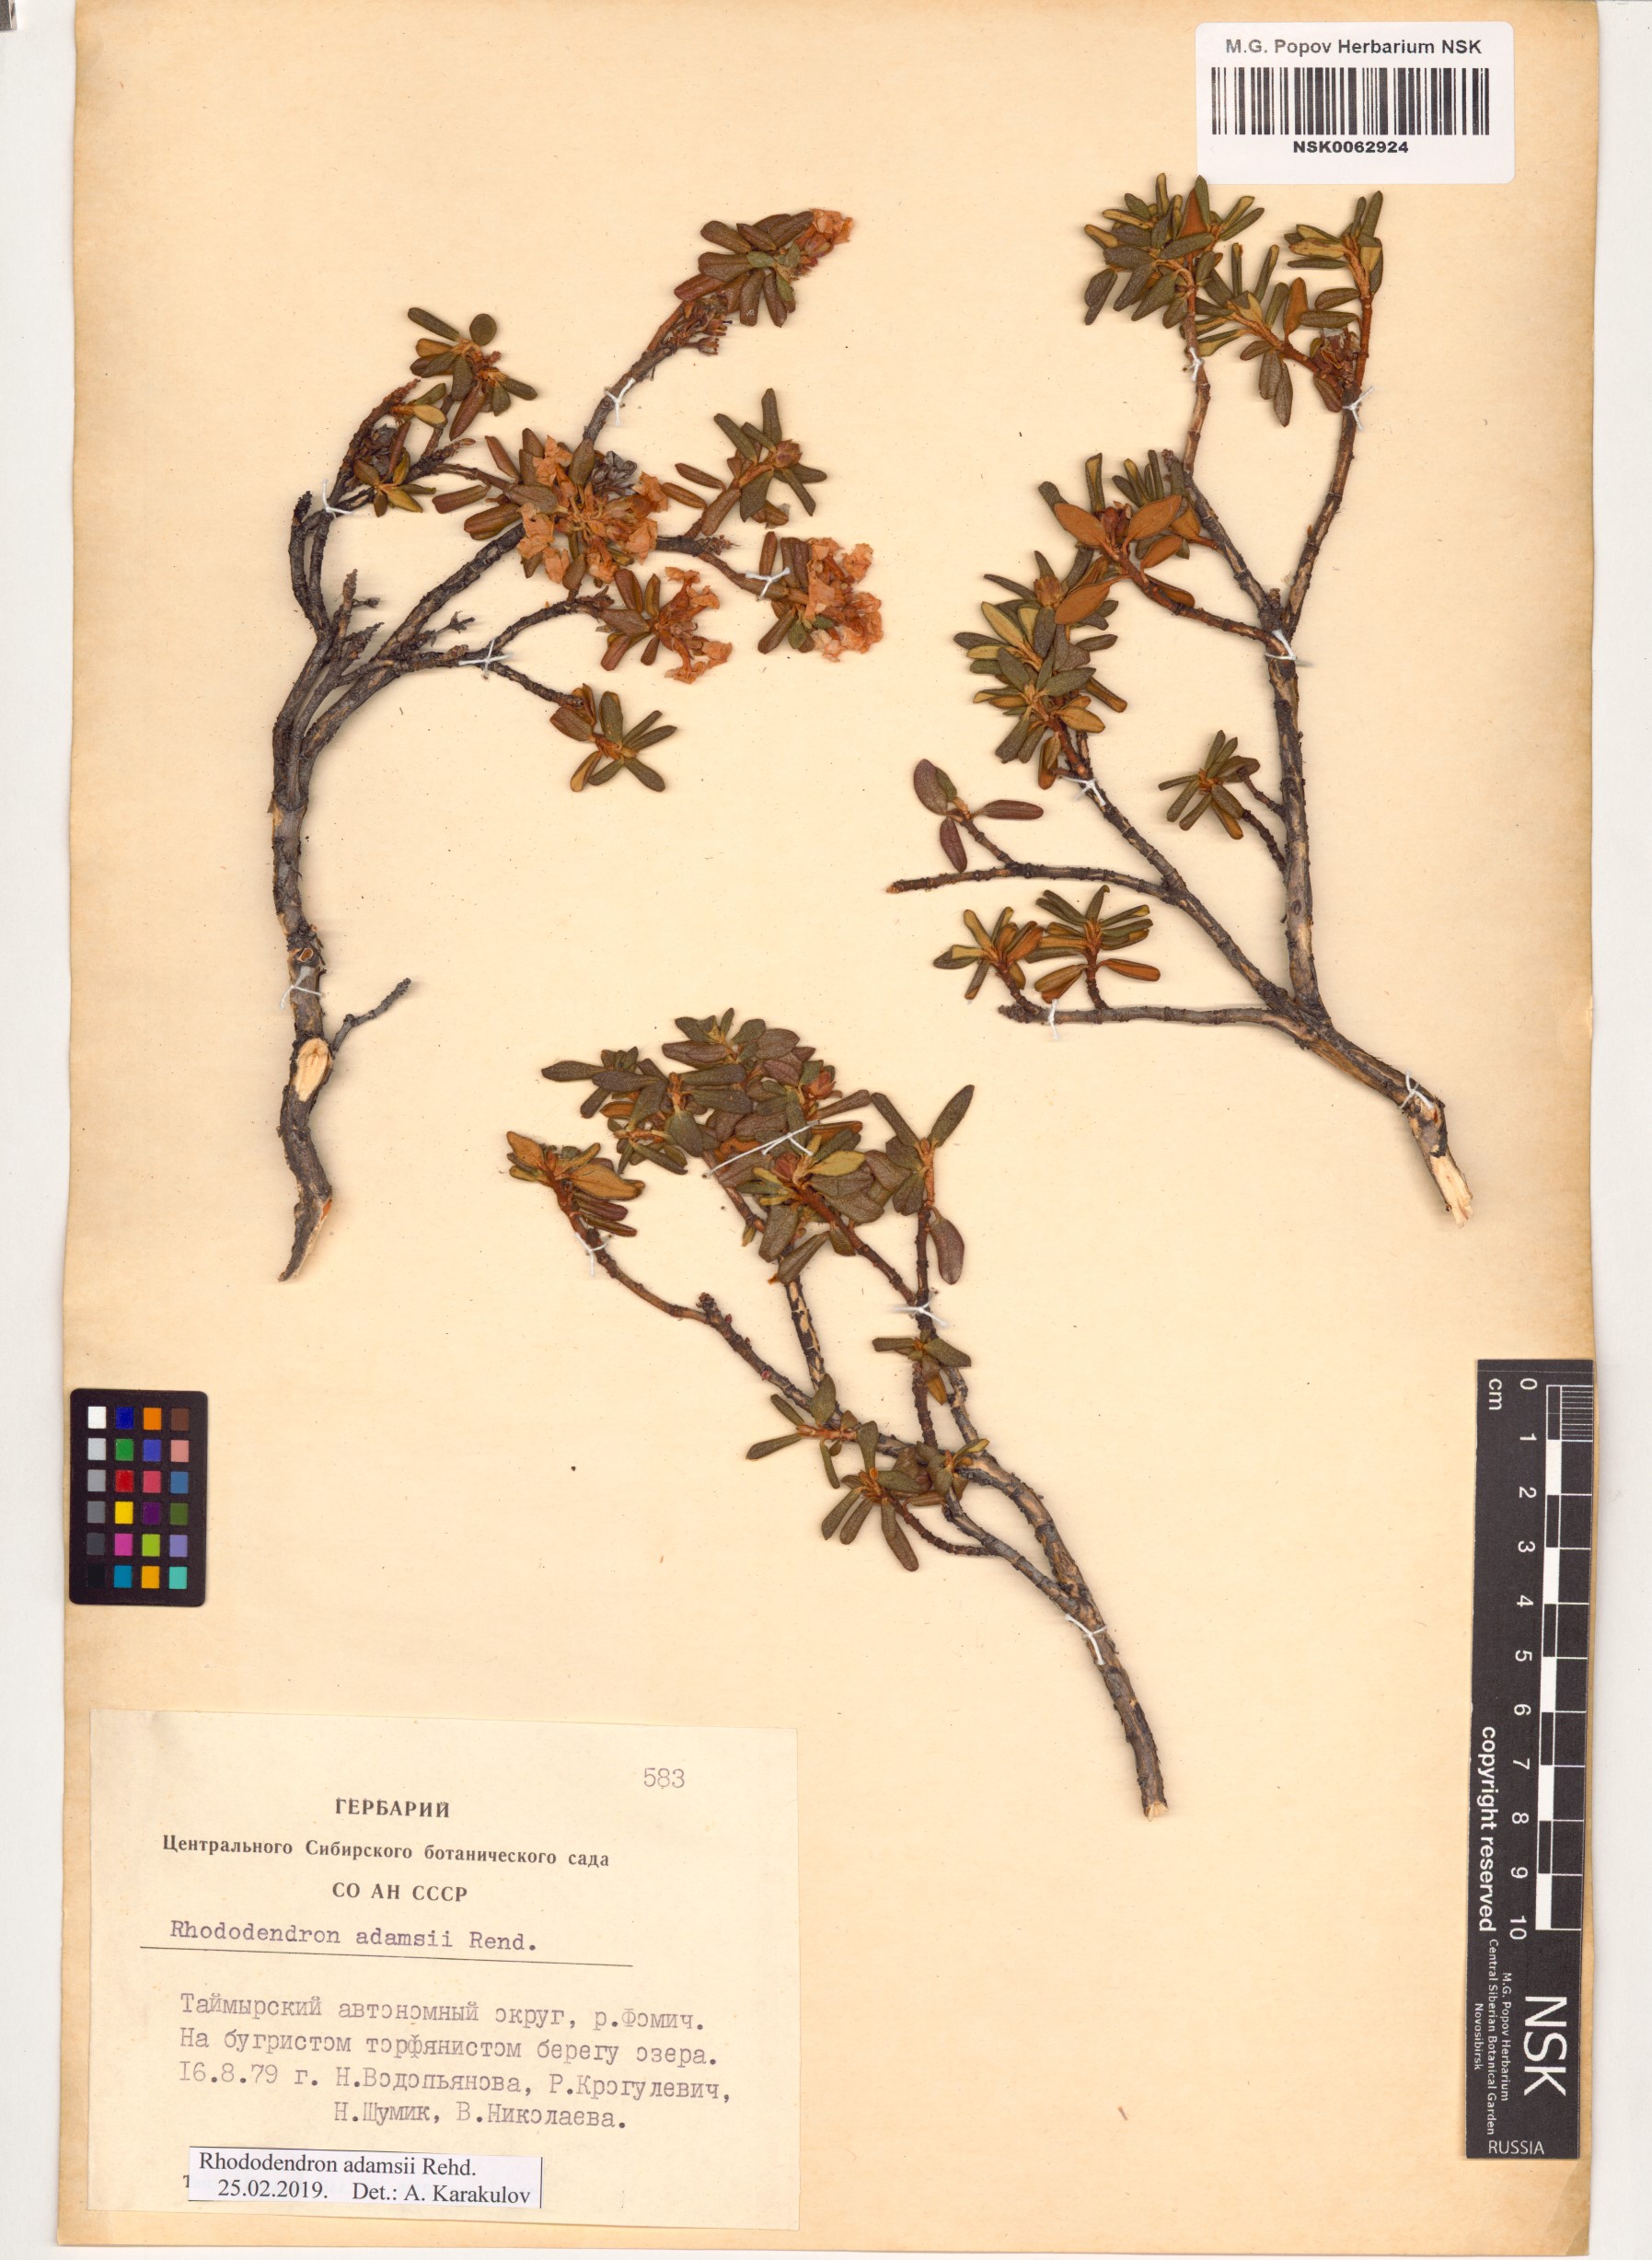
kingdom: Plantae
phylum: Tracheophyta
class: Magnoliopsida
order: Ericales
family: Ericaceae
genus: Rhododendron
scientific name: Rhododendron adamsii
